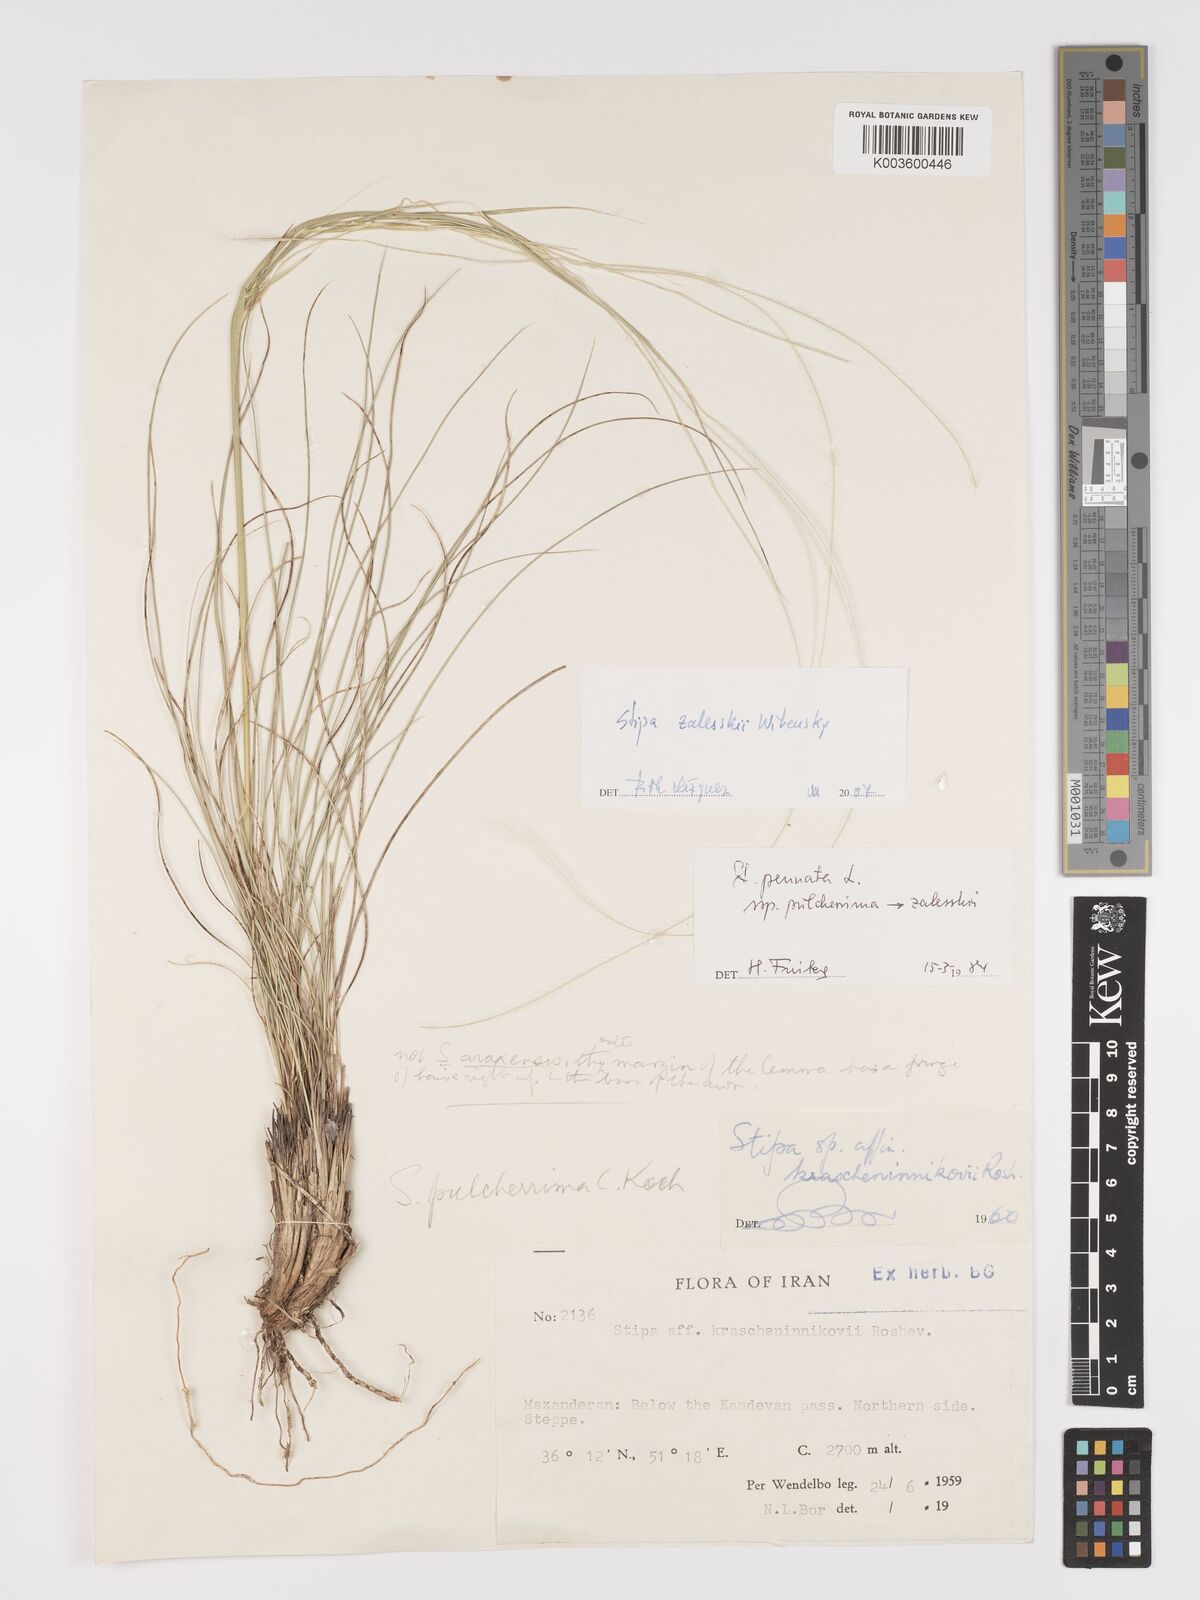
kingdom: Plantae
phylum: Tracheophyta
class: Liliopsida
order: Poales
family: Poaceae
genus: Stipa
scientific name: Stipa zalesskyi
